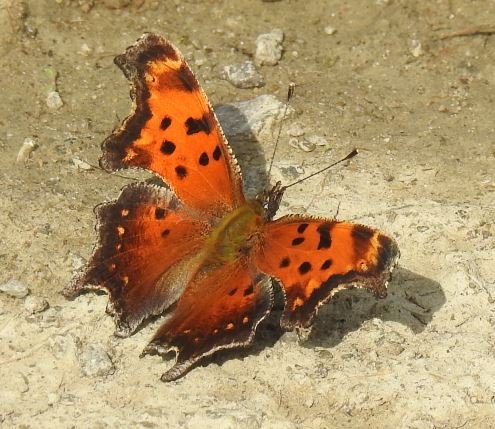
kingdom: Animalia
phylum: Arthropoda
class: Insecta
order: Lepidoptera
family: Nymphalidae
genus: Polygonia
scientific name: Polygonia progne
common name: Gray Comma
